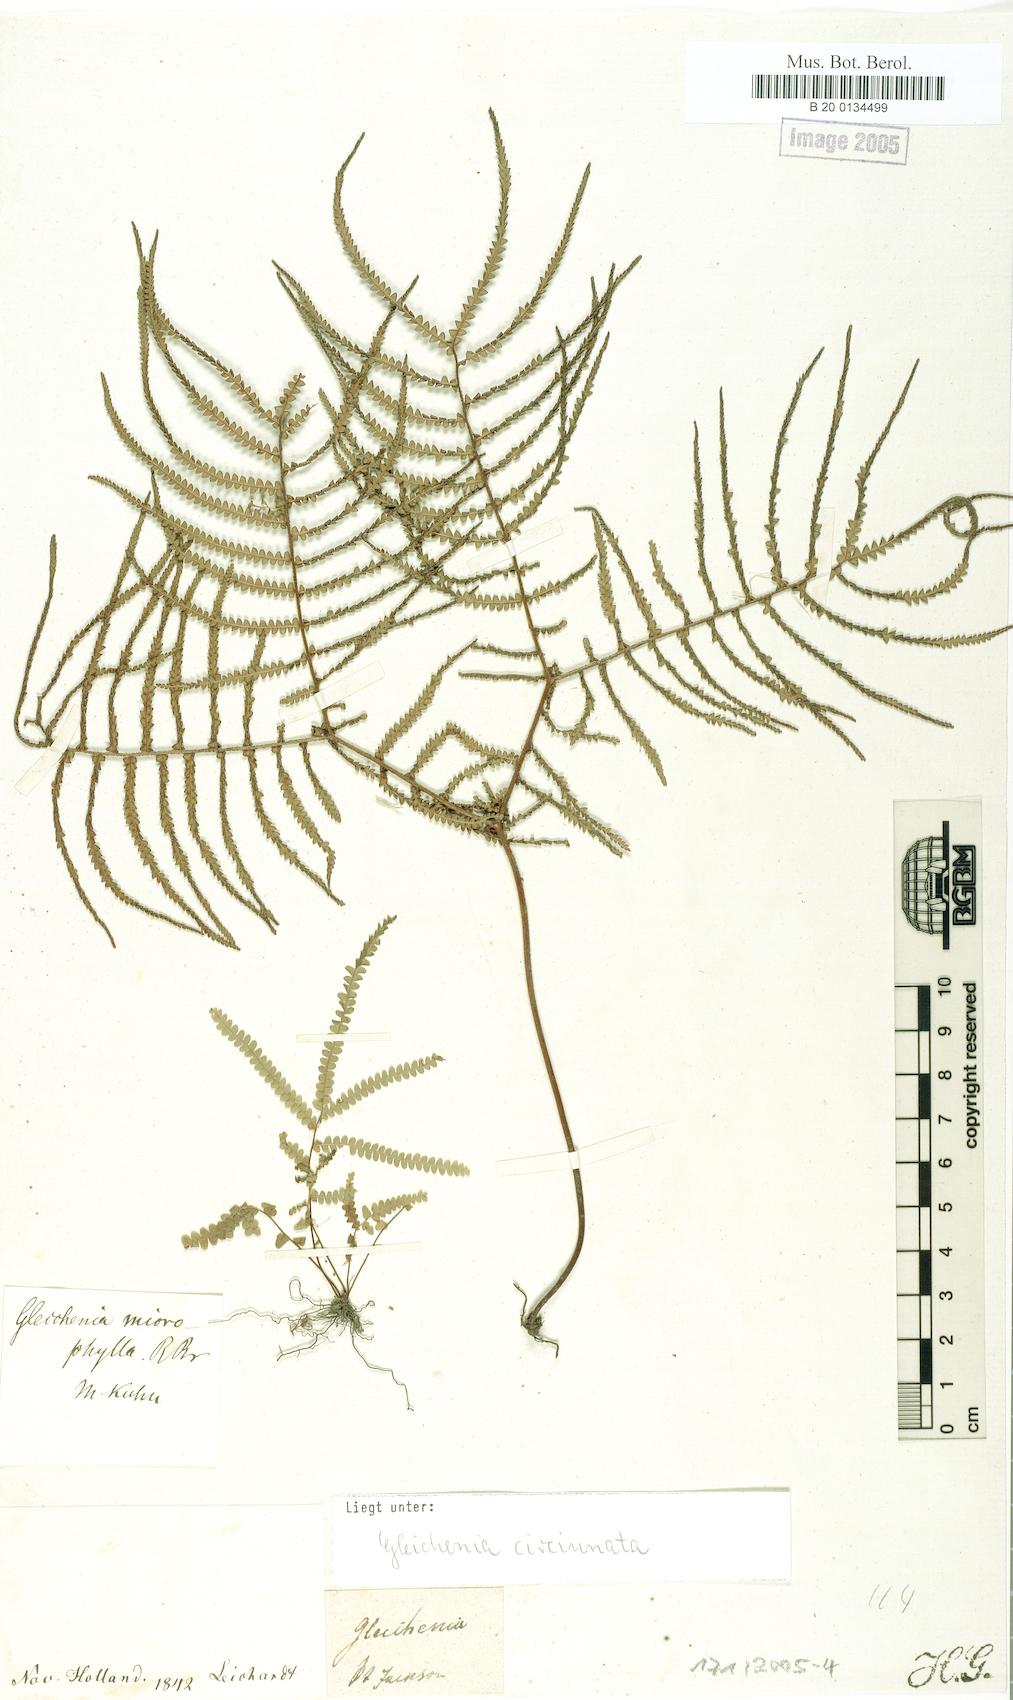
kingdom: Plantae
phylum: Tracheophyta
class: Polypodiopsida
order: Gleicheniales
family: Gleicheniaceae
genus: Gleichenia
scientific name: Gleichenia microphylla
